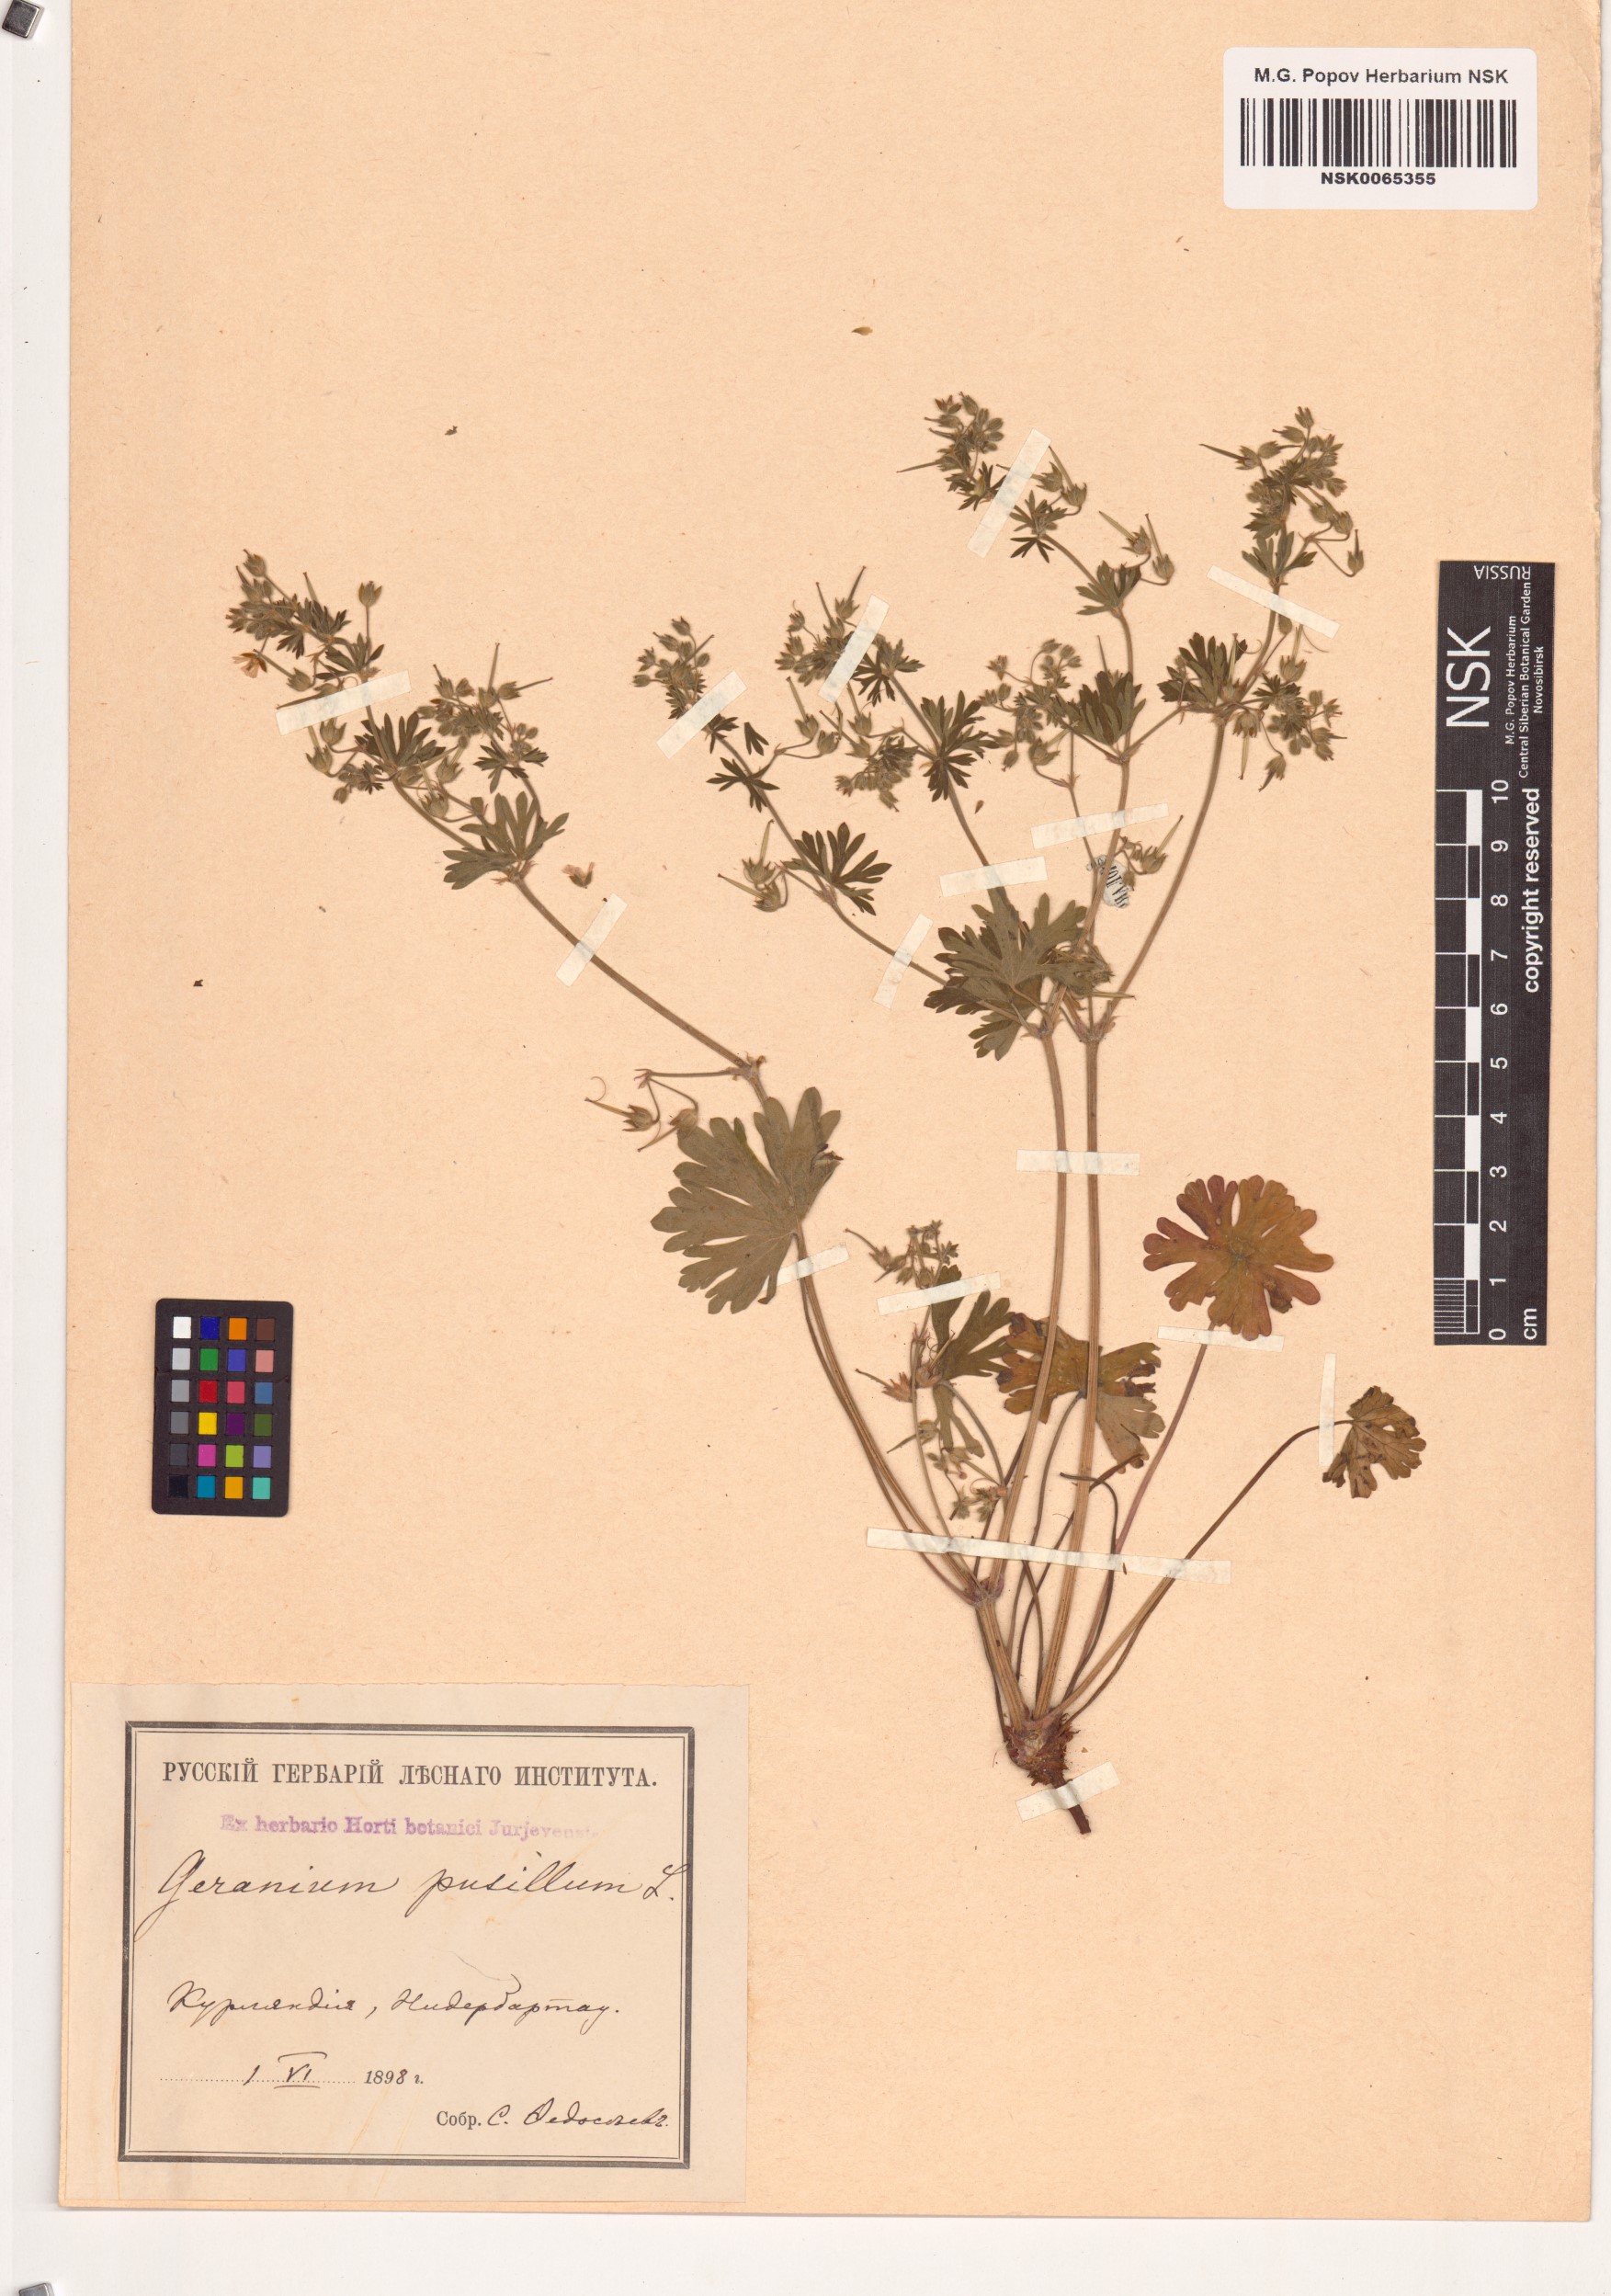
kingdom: Plantae
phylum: Tracheophyta
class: Magnoliopsida
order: Geraniales
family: Geraniaceae
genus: Geranium
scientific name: Geranium pusillum
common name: Small geranium
